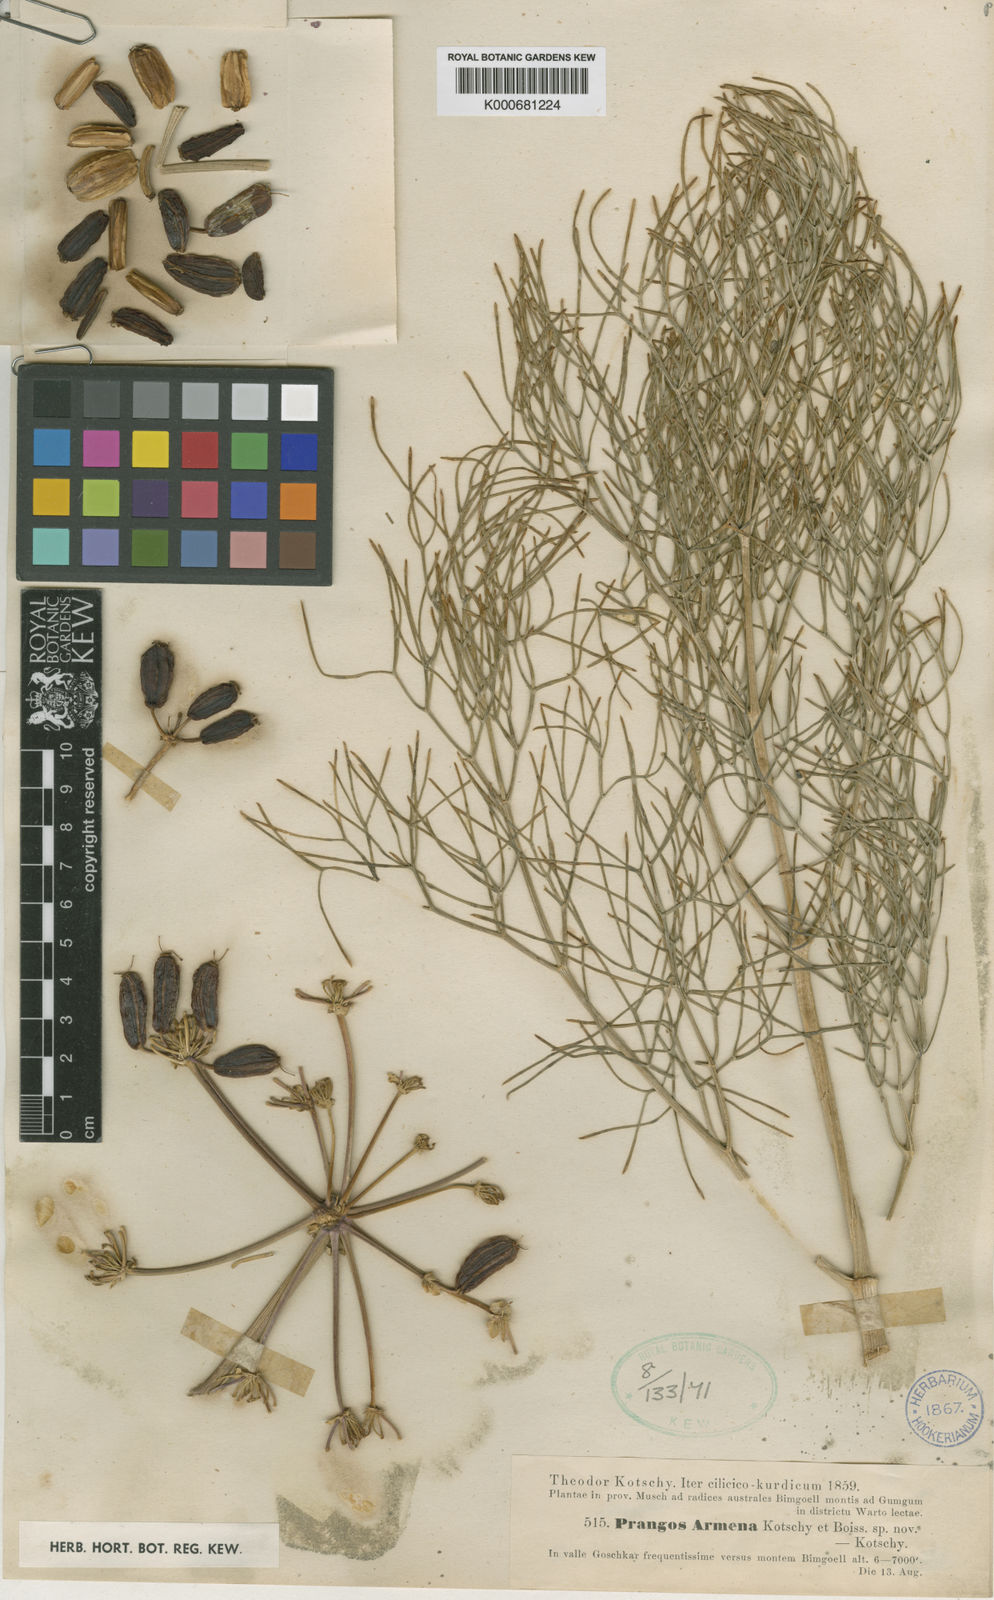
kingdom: Plantae
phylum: Tracheophyta
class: Magnoliopsida
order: Apiales
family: Apiaceae
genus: Prangos
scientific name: Prangos
